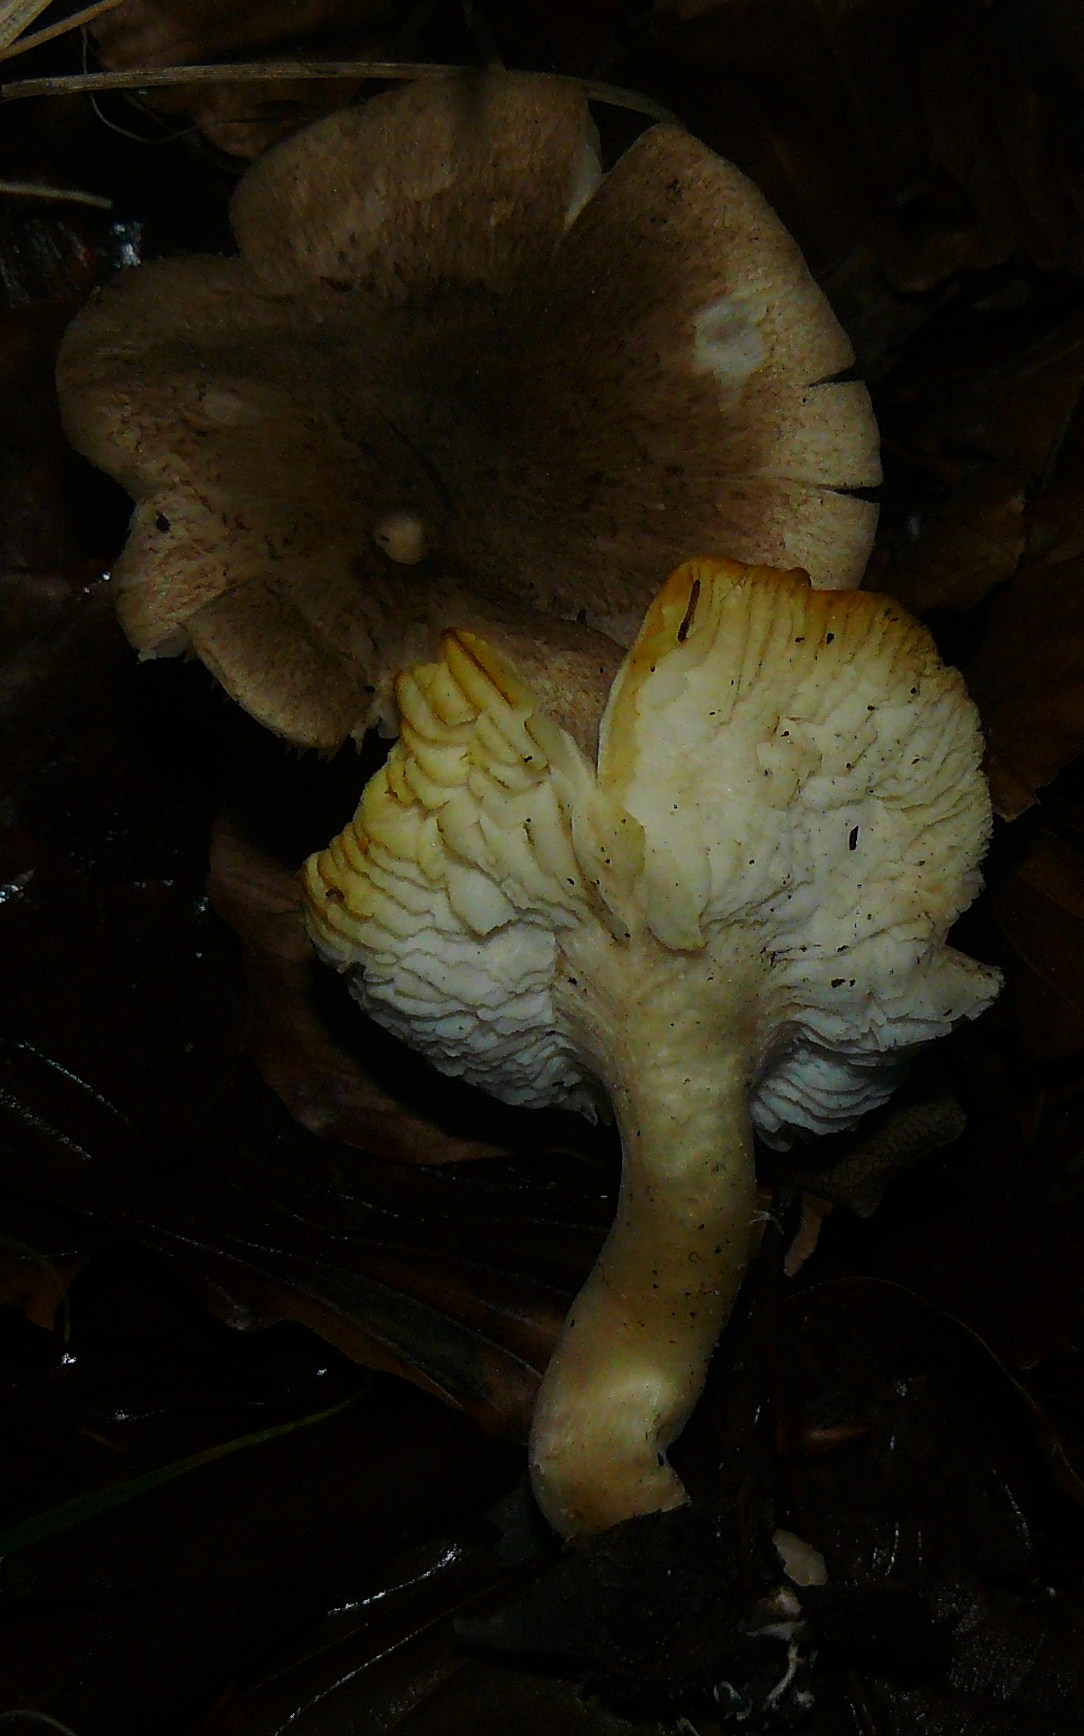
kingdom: Fungi
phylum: Basidiomycota
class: Agaricomycetes
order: Agaricales
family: Tricholomataceae
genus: Tricholoma
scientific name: Tricholoma scalpturatum
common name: gulplettet ridderhat
